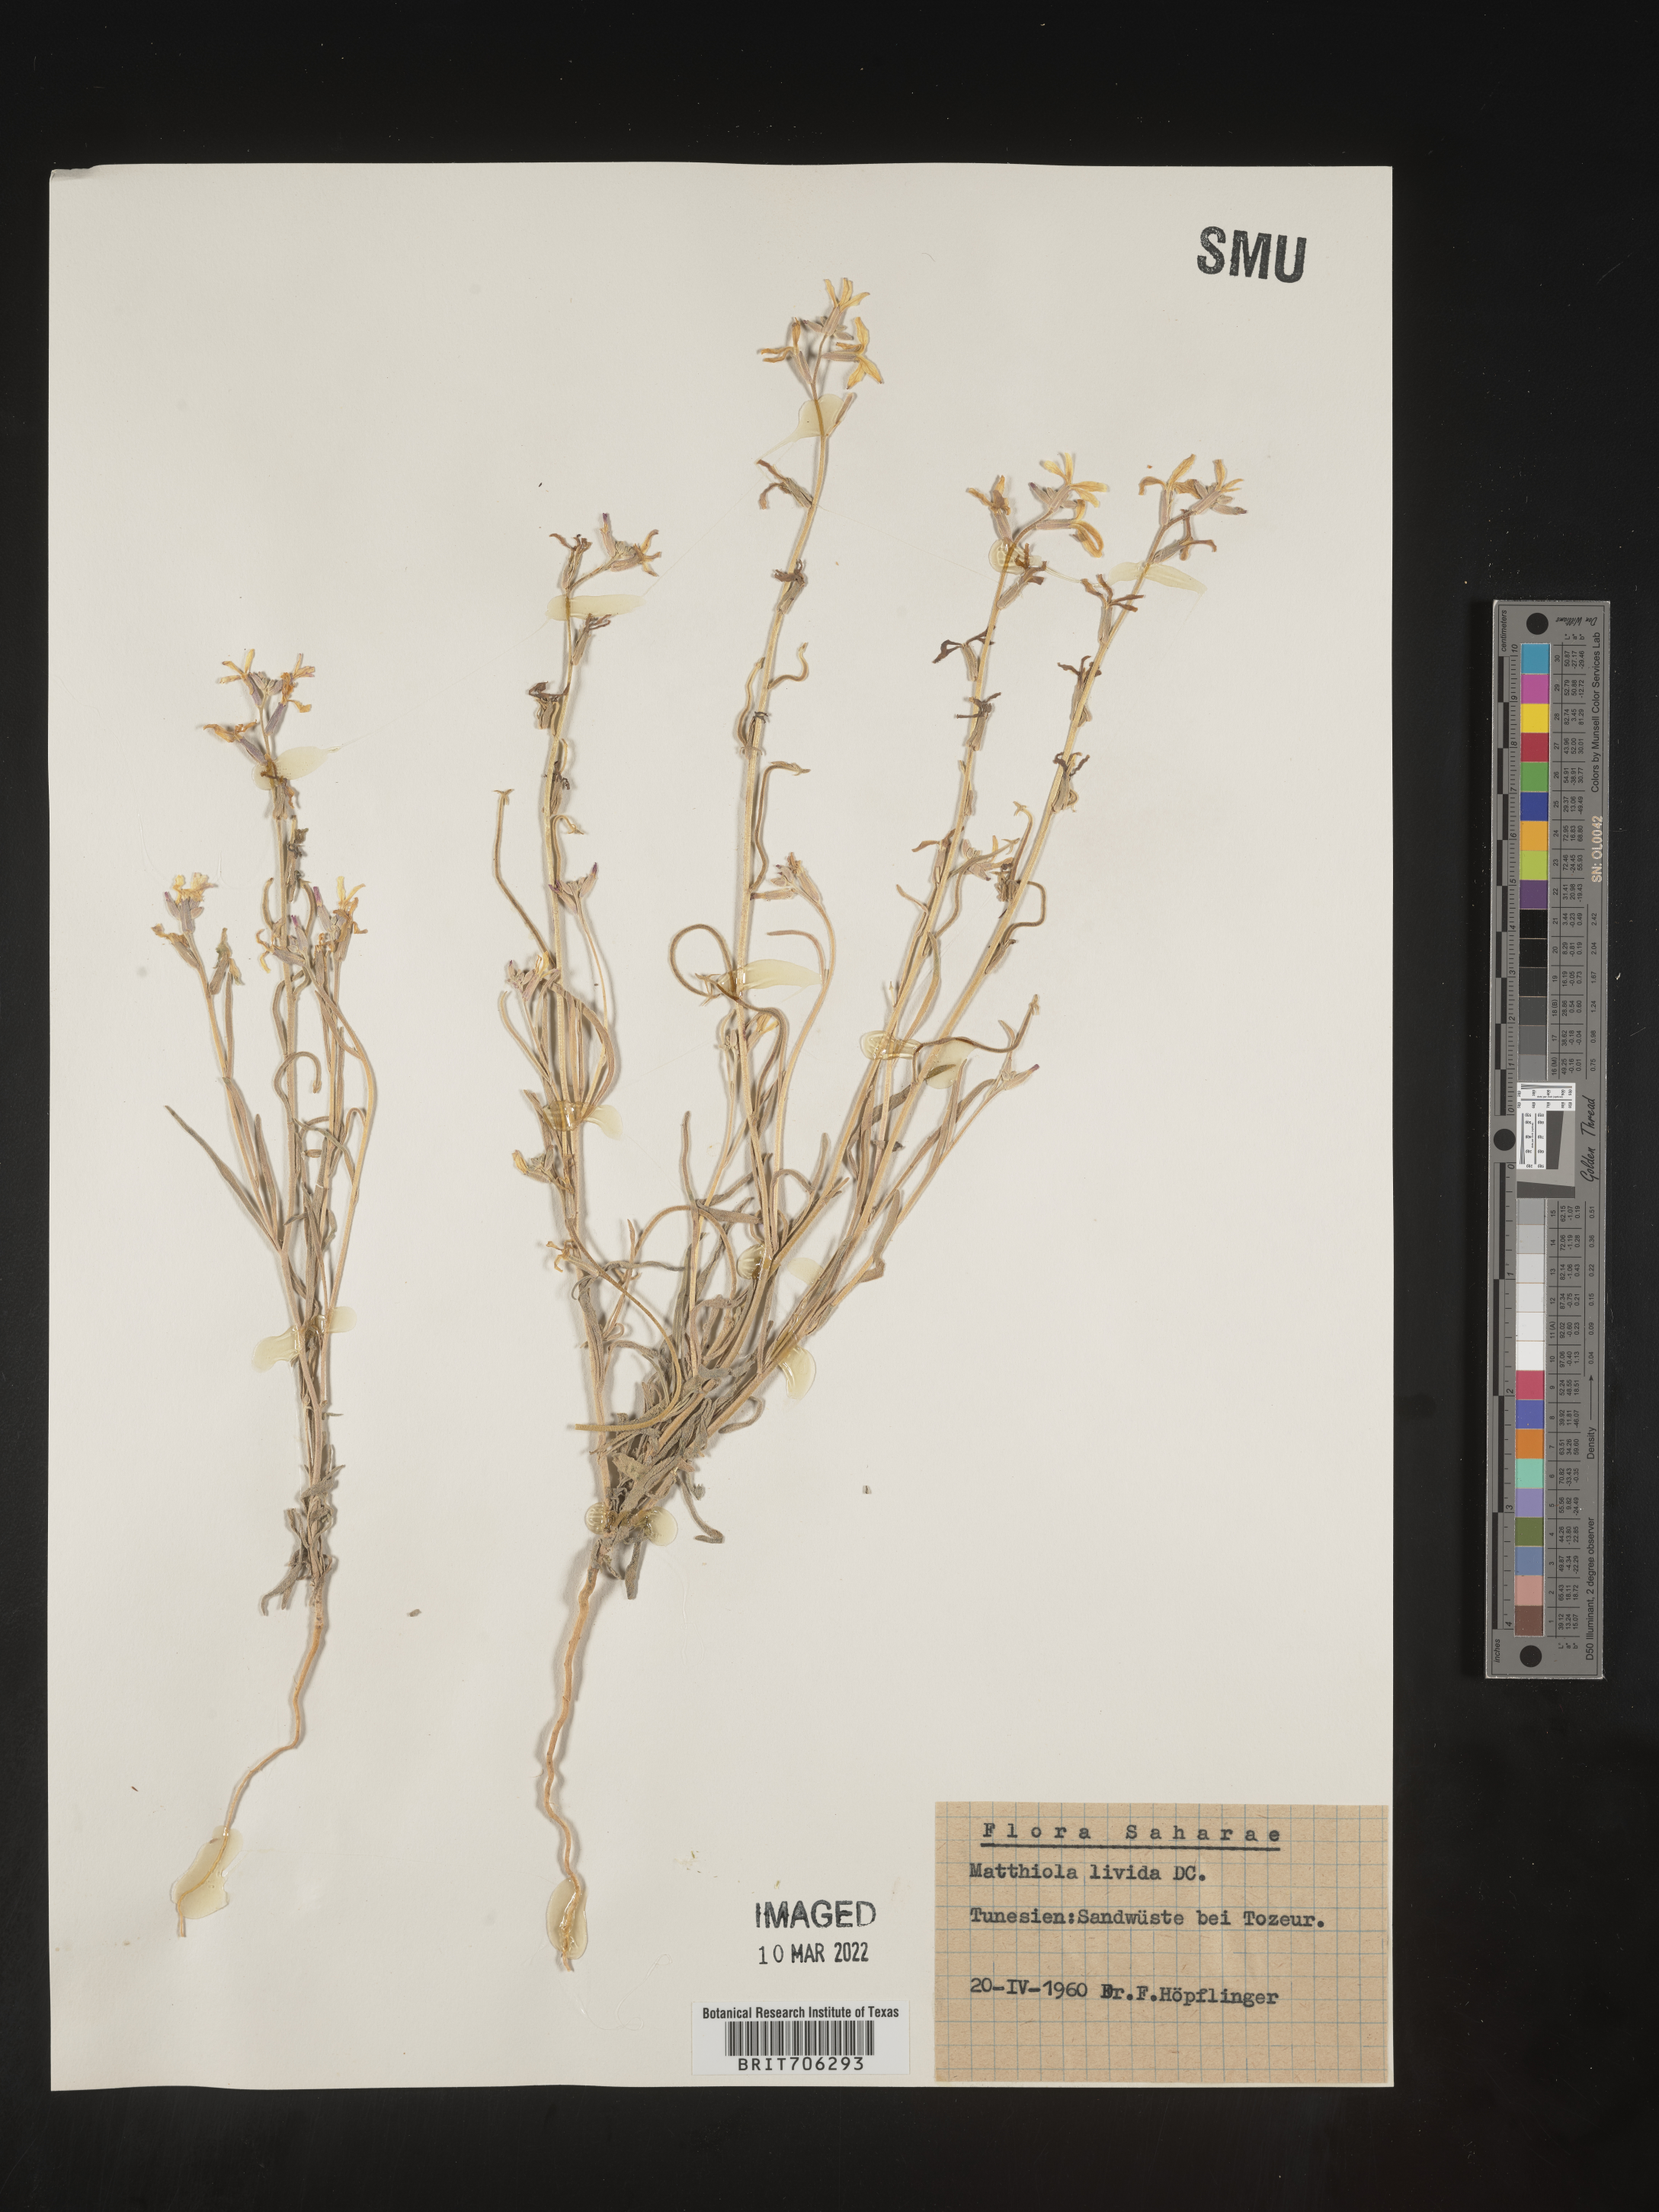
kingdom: Plantae
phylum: Tracheophyta
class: Magnoliopsida
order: Brassicales
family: Brassicaceae
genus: Matthiola
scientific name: Matthiola
